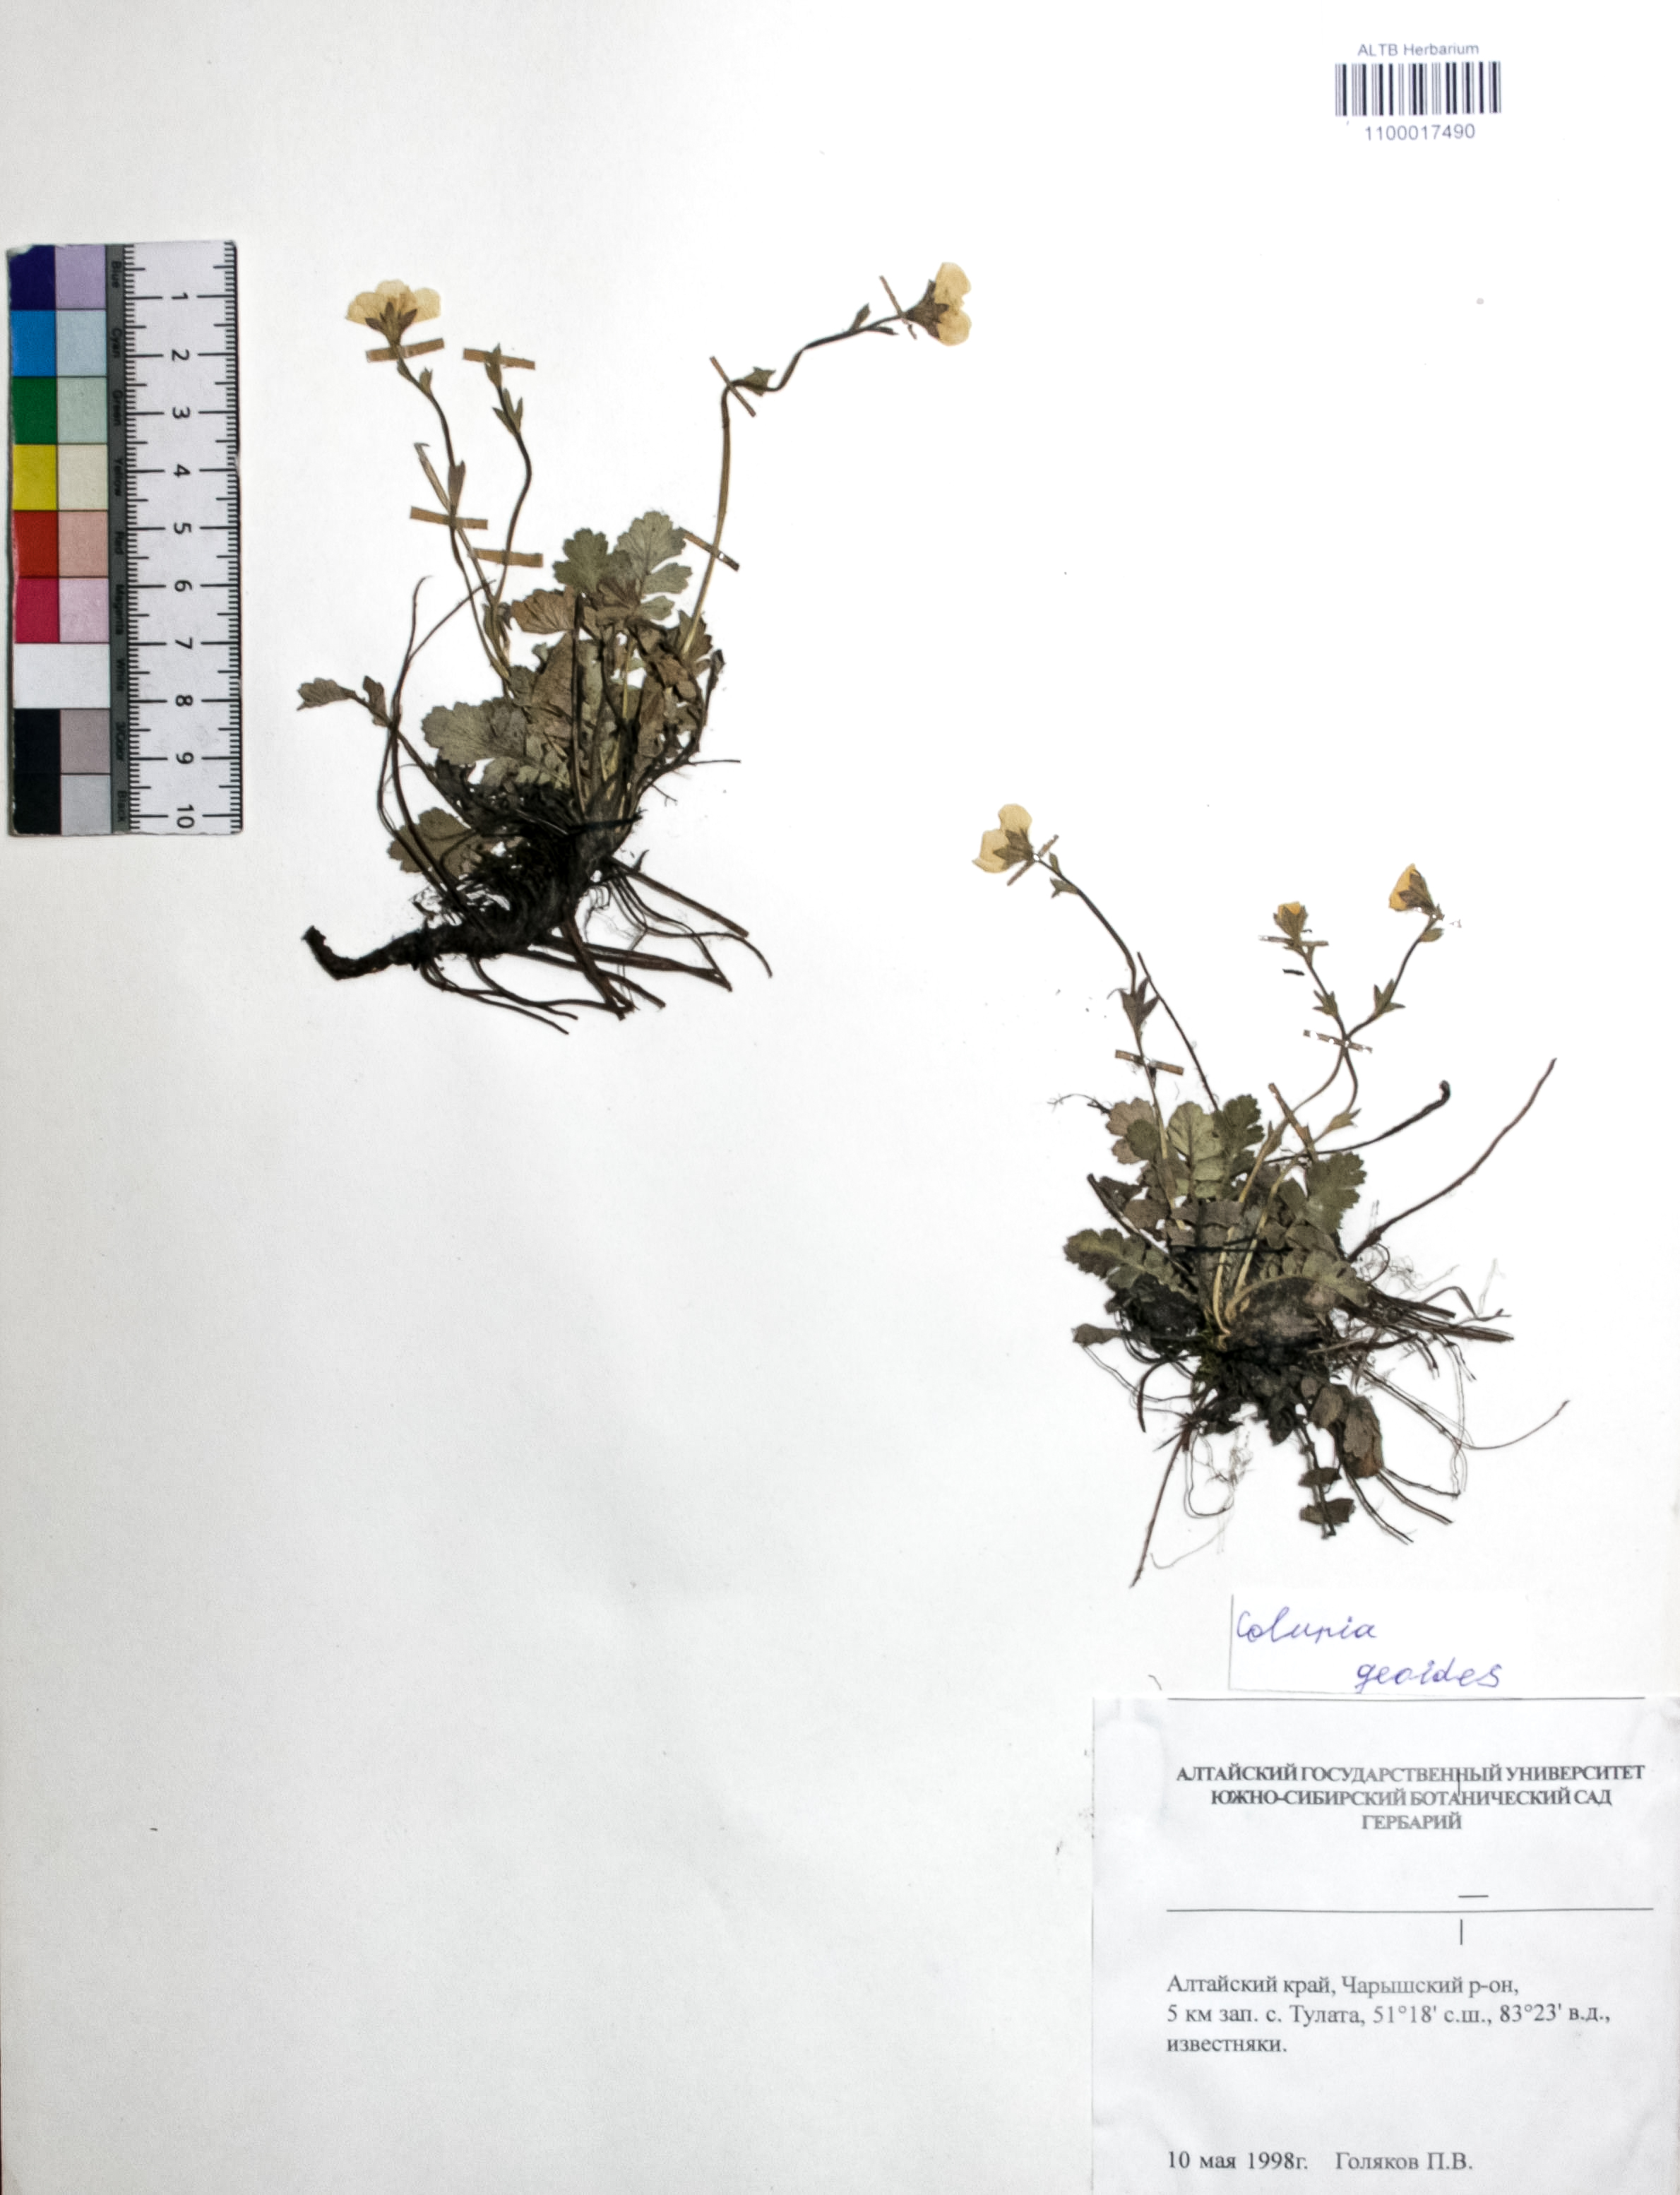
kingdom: Plantae
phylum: Tracheophyta
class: Magnoliopsida
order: Rosales
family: Rosaceae
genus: Geum
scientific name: Geum geoides
